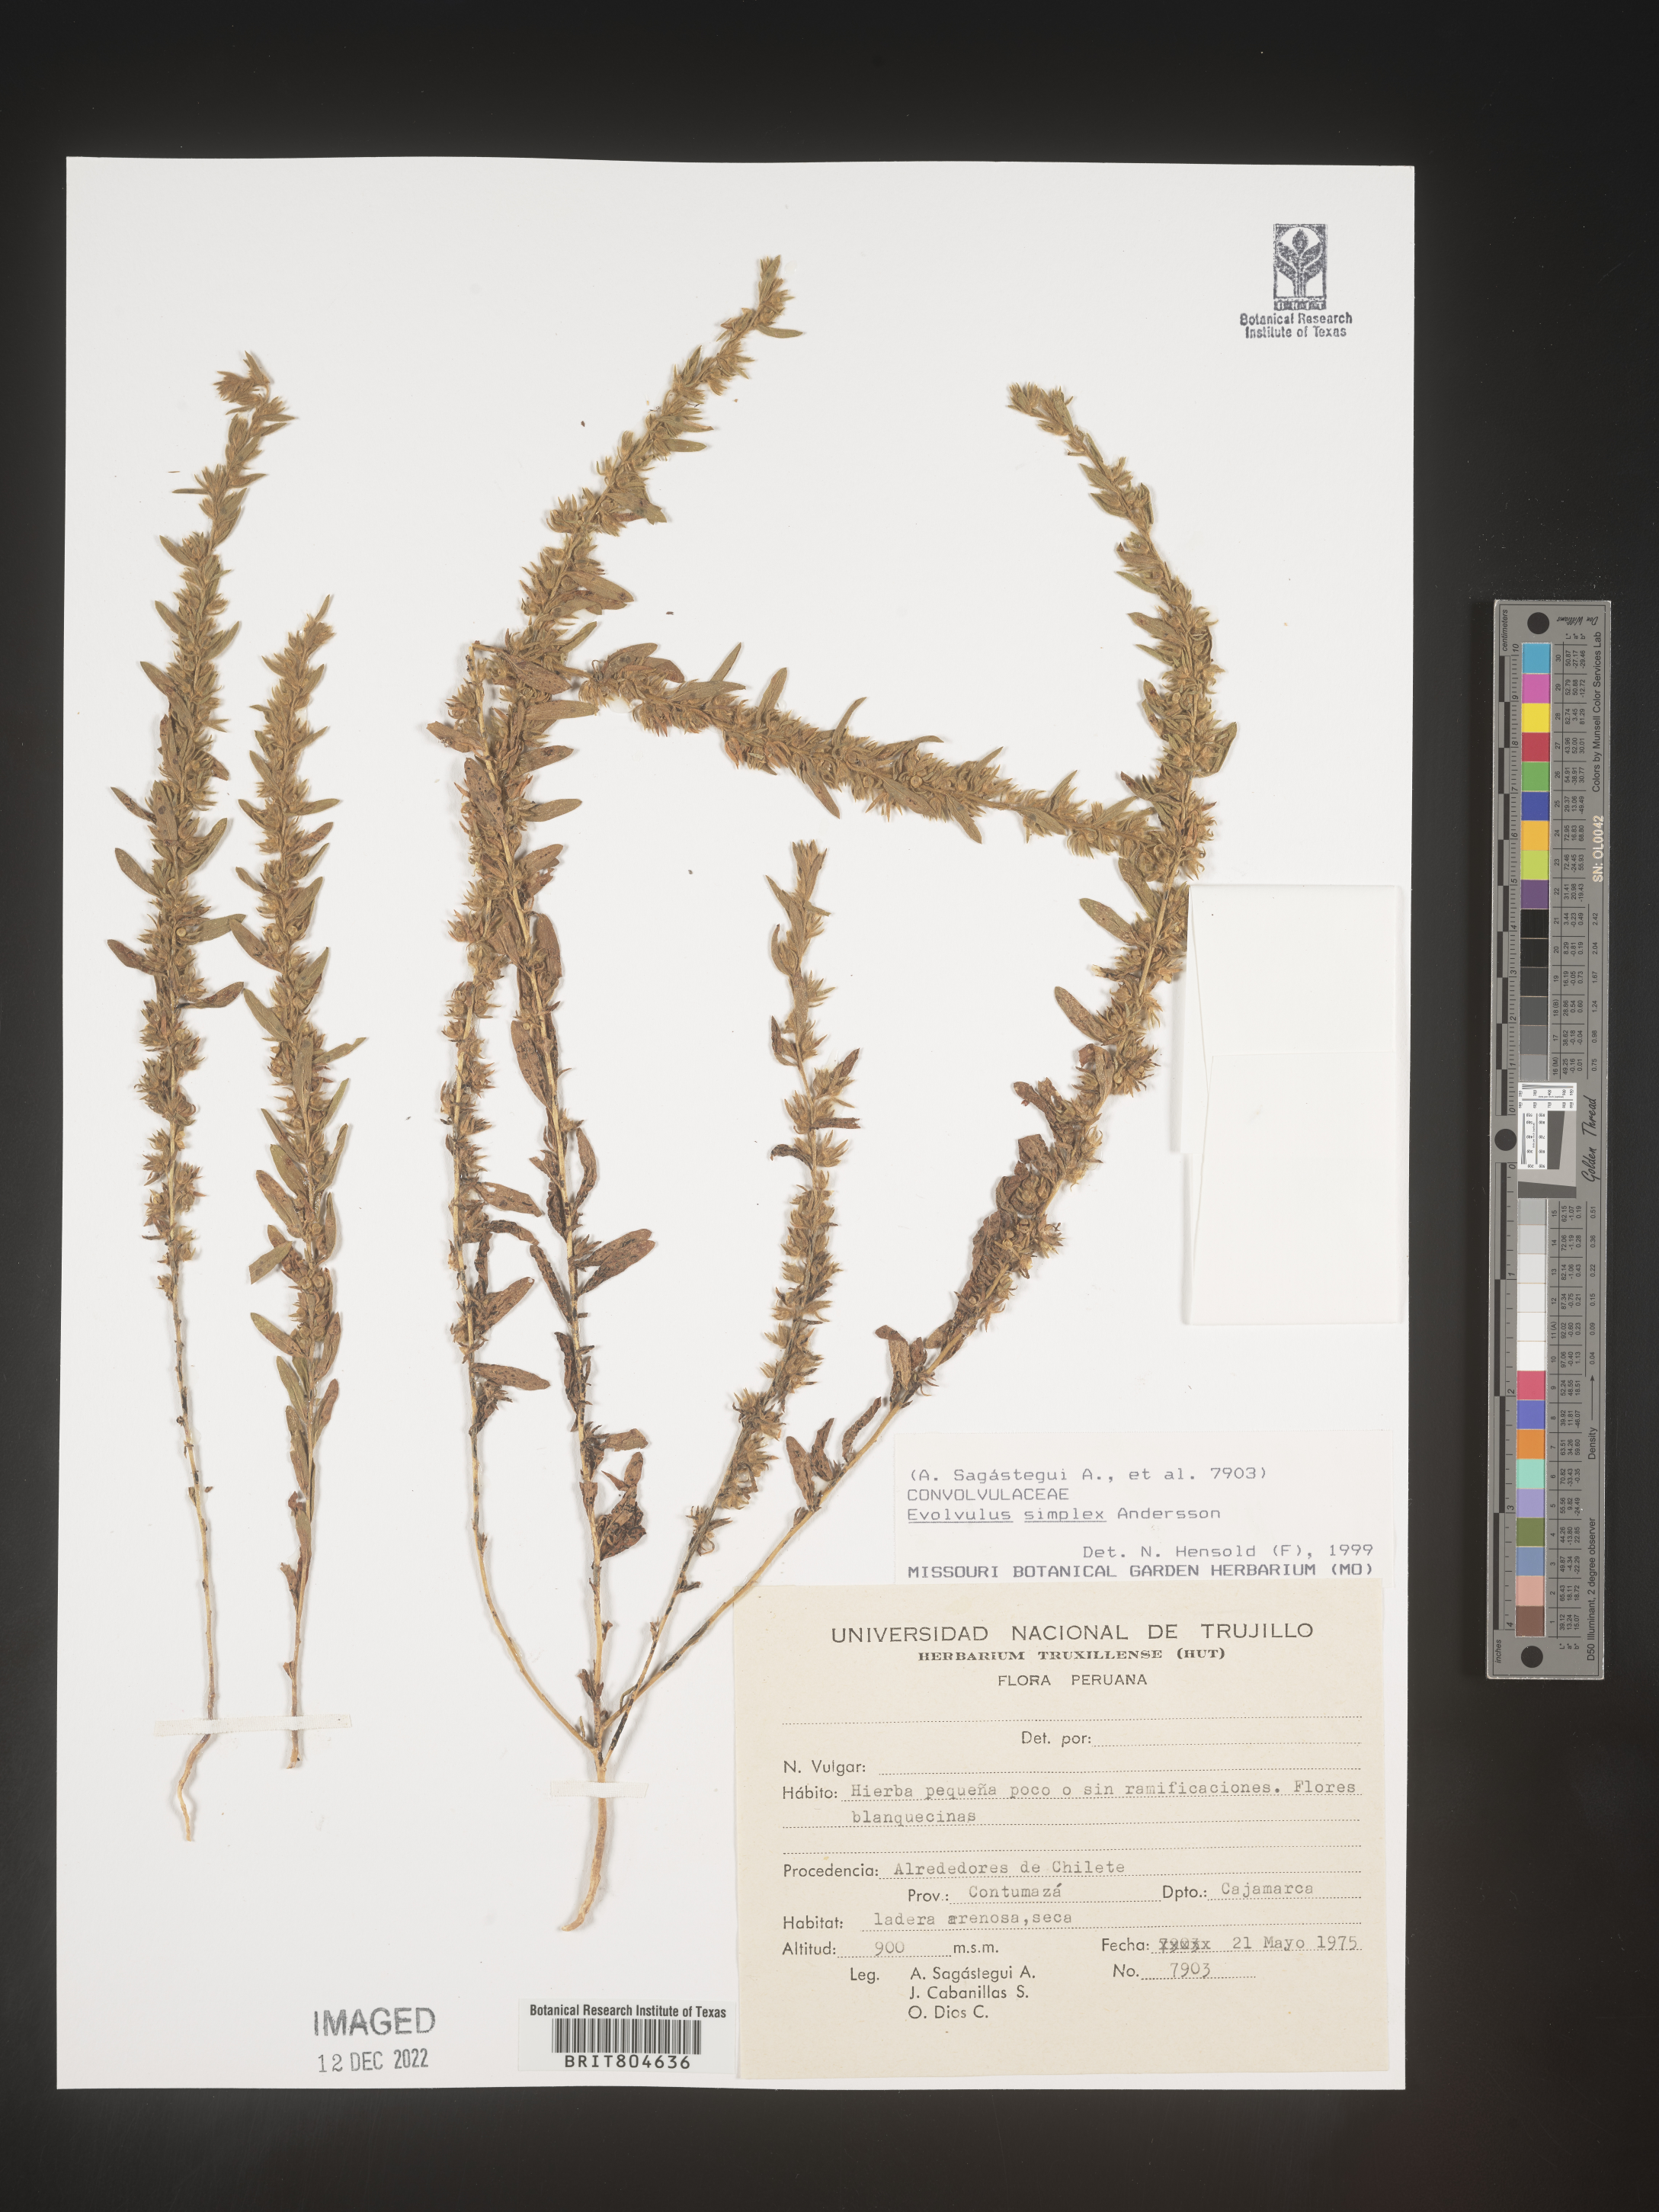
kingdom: Plantae
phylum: Tracheophyta
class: Magnoliopsida
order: Solanales
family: Convolvulaceae
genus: Evolvulus
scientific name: Evolvulus
